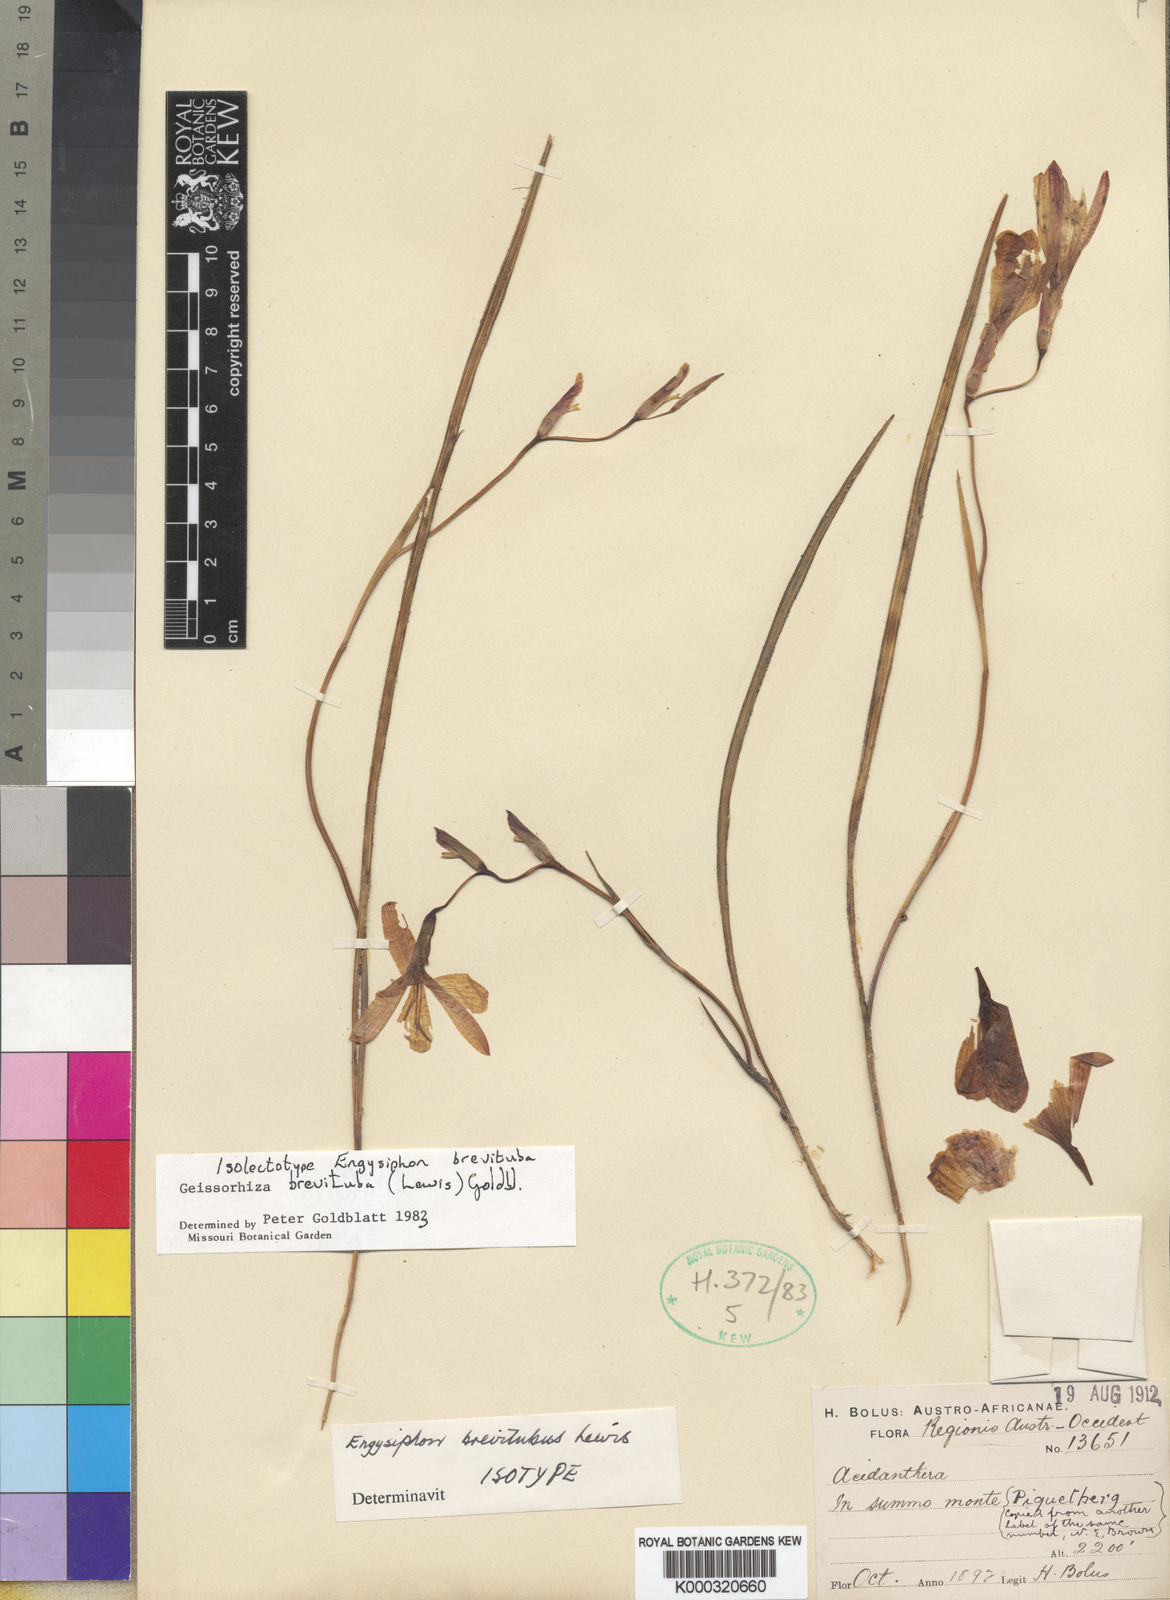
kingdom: Plantae
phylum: Tracheophyta
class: Liliopsida
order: Asparagales
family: Iridaceae
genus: Geissorhiza
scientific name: Geissorhiza brevituba
